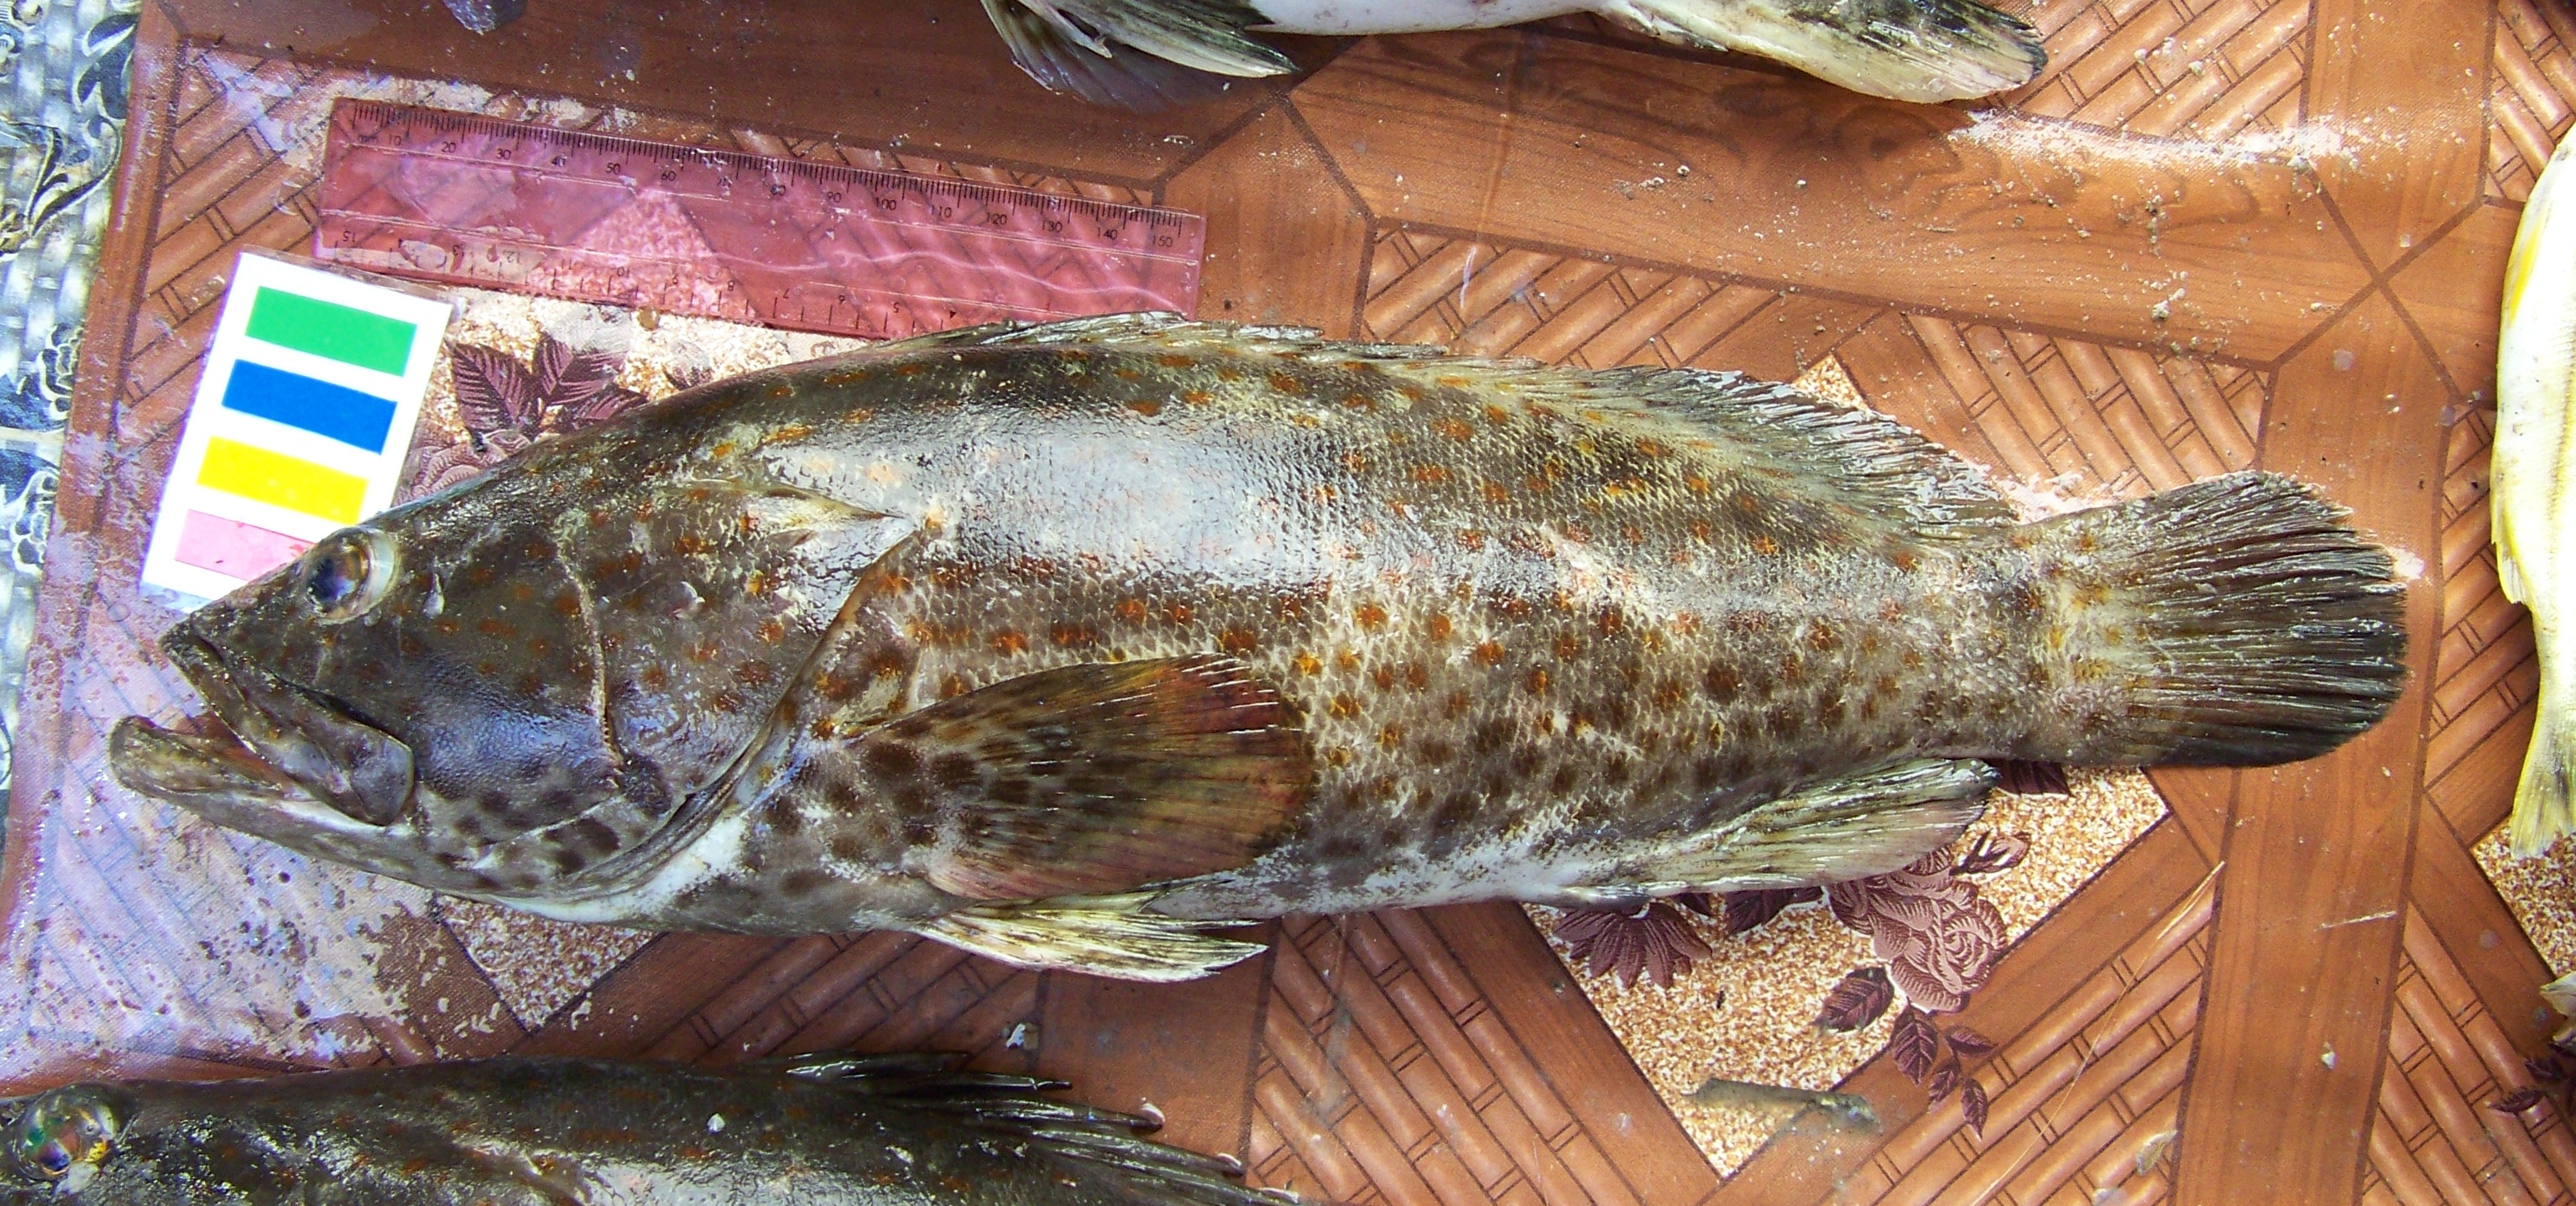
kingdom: Animalia
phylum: Chordata
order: Perciformes
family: Serranidae
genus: Epinephelus
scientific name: Epinephelus coioides
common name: Orange-spotted grouper
